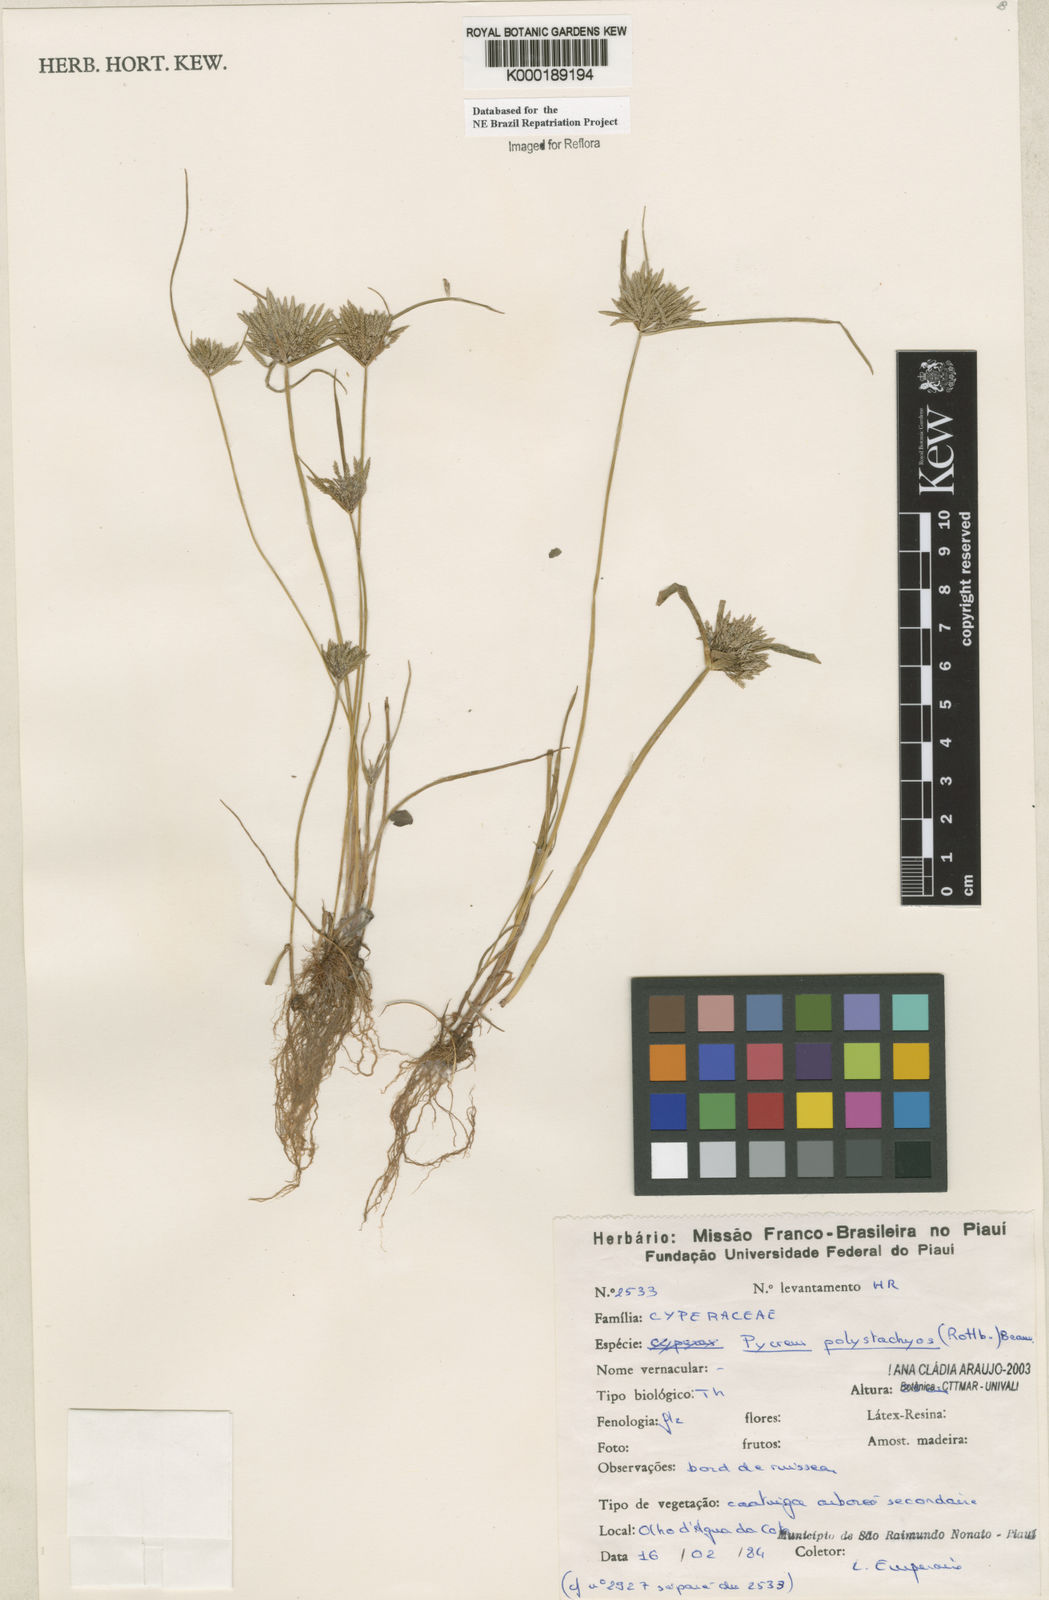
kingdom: Plantae
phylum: Tracheophyta
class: Liliopsida
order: Poales
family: Cyperaceae
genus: Cyperus
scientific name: Cyperus polystachyos
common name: Bunchy flat sedge
